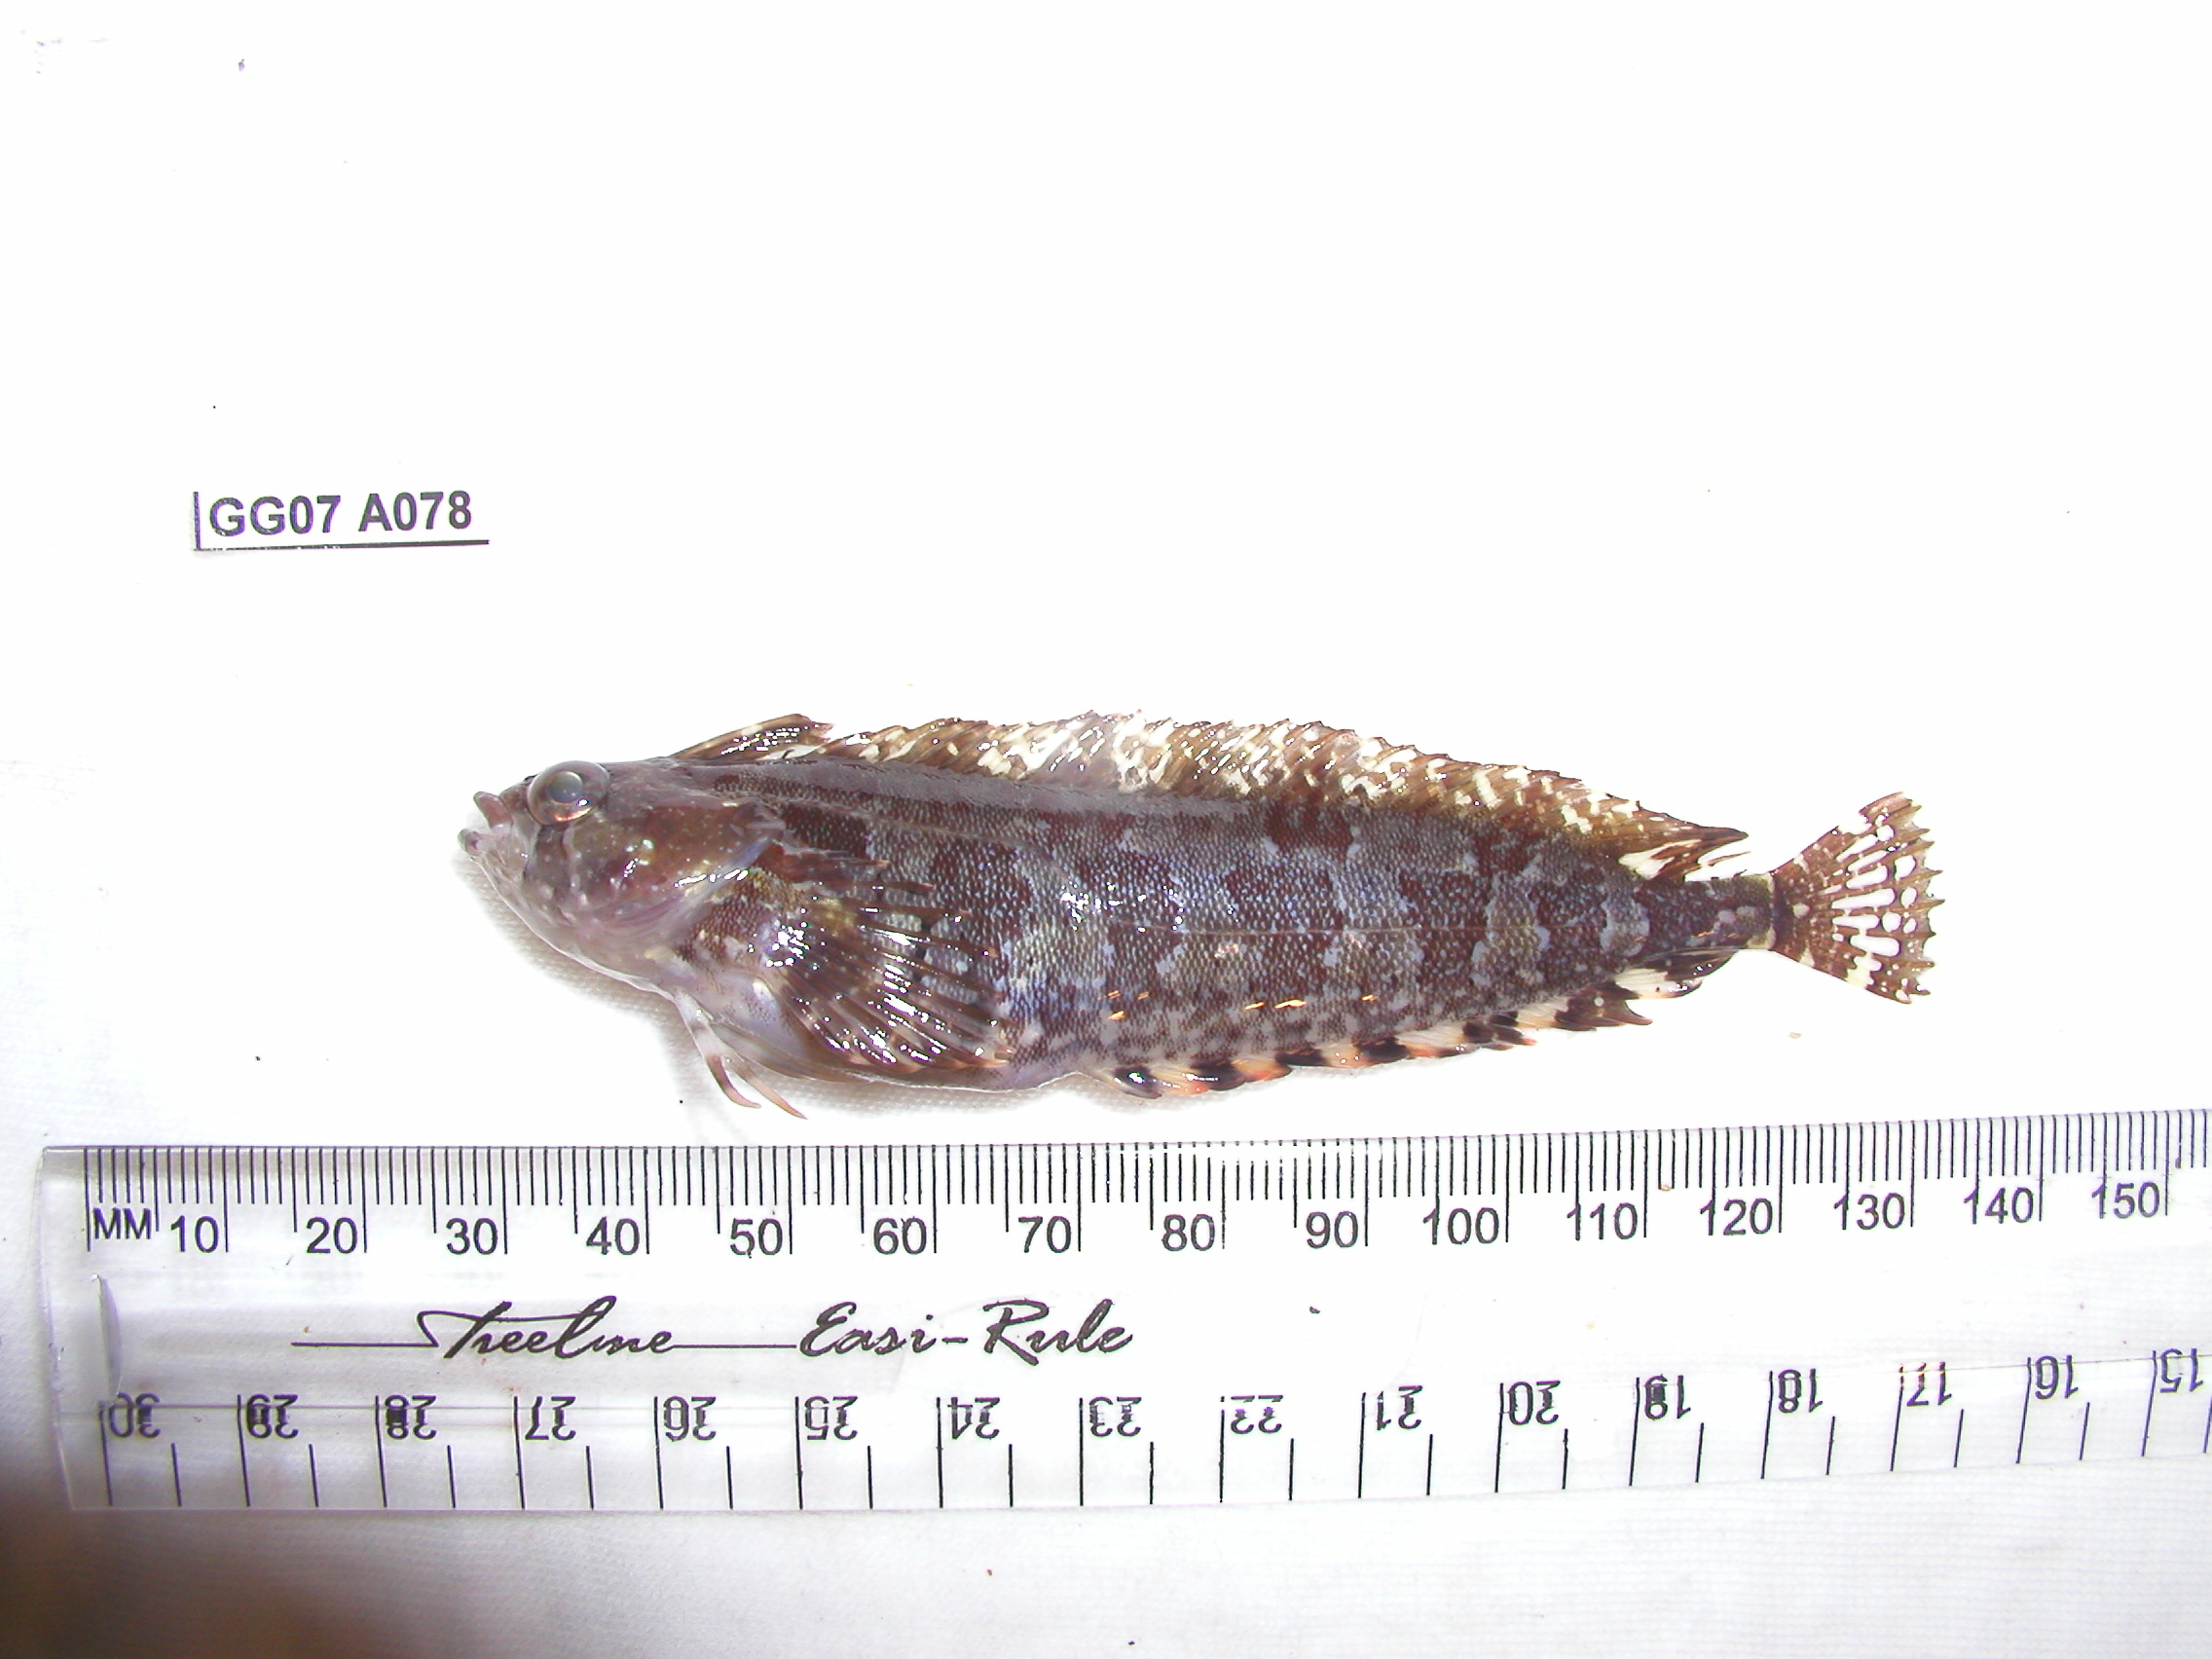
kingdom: Animalia
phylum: Chordata
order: Perciformes
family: Clinidae
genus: Pavoclinus
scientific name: Pavoclinus laurentii
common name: Rippled klipfish
